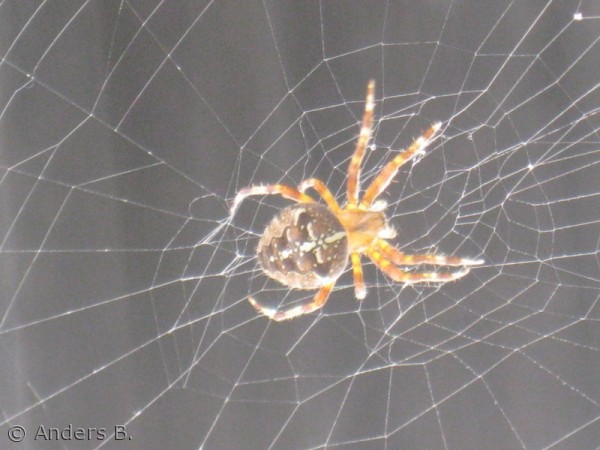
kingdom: Animalia
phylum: Arthropoda
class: Arachnida
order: Araneae
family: Araneidae
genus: Araneus
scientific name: Araneus diadematus
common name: Korsedderkop
